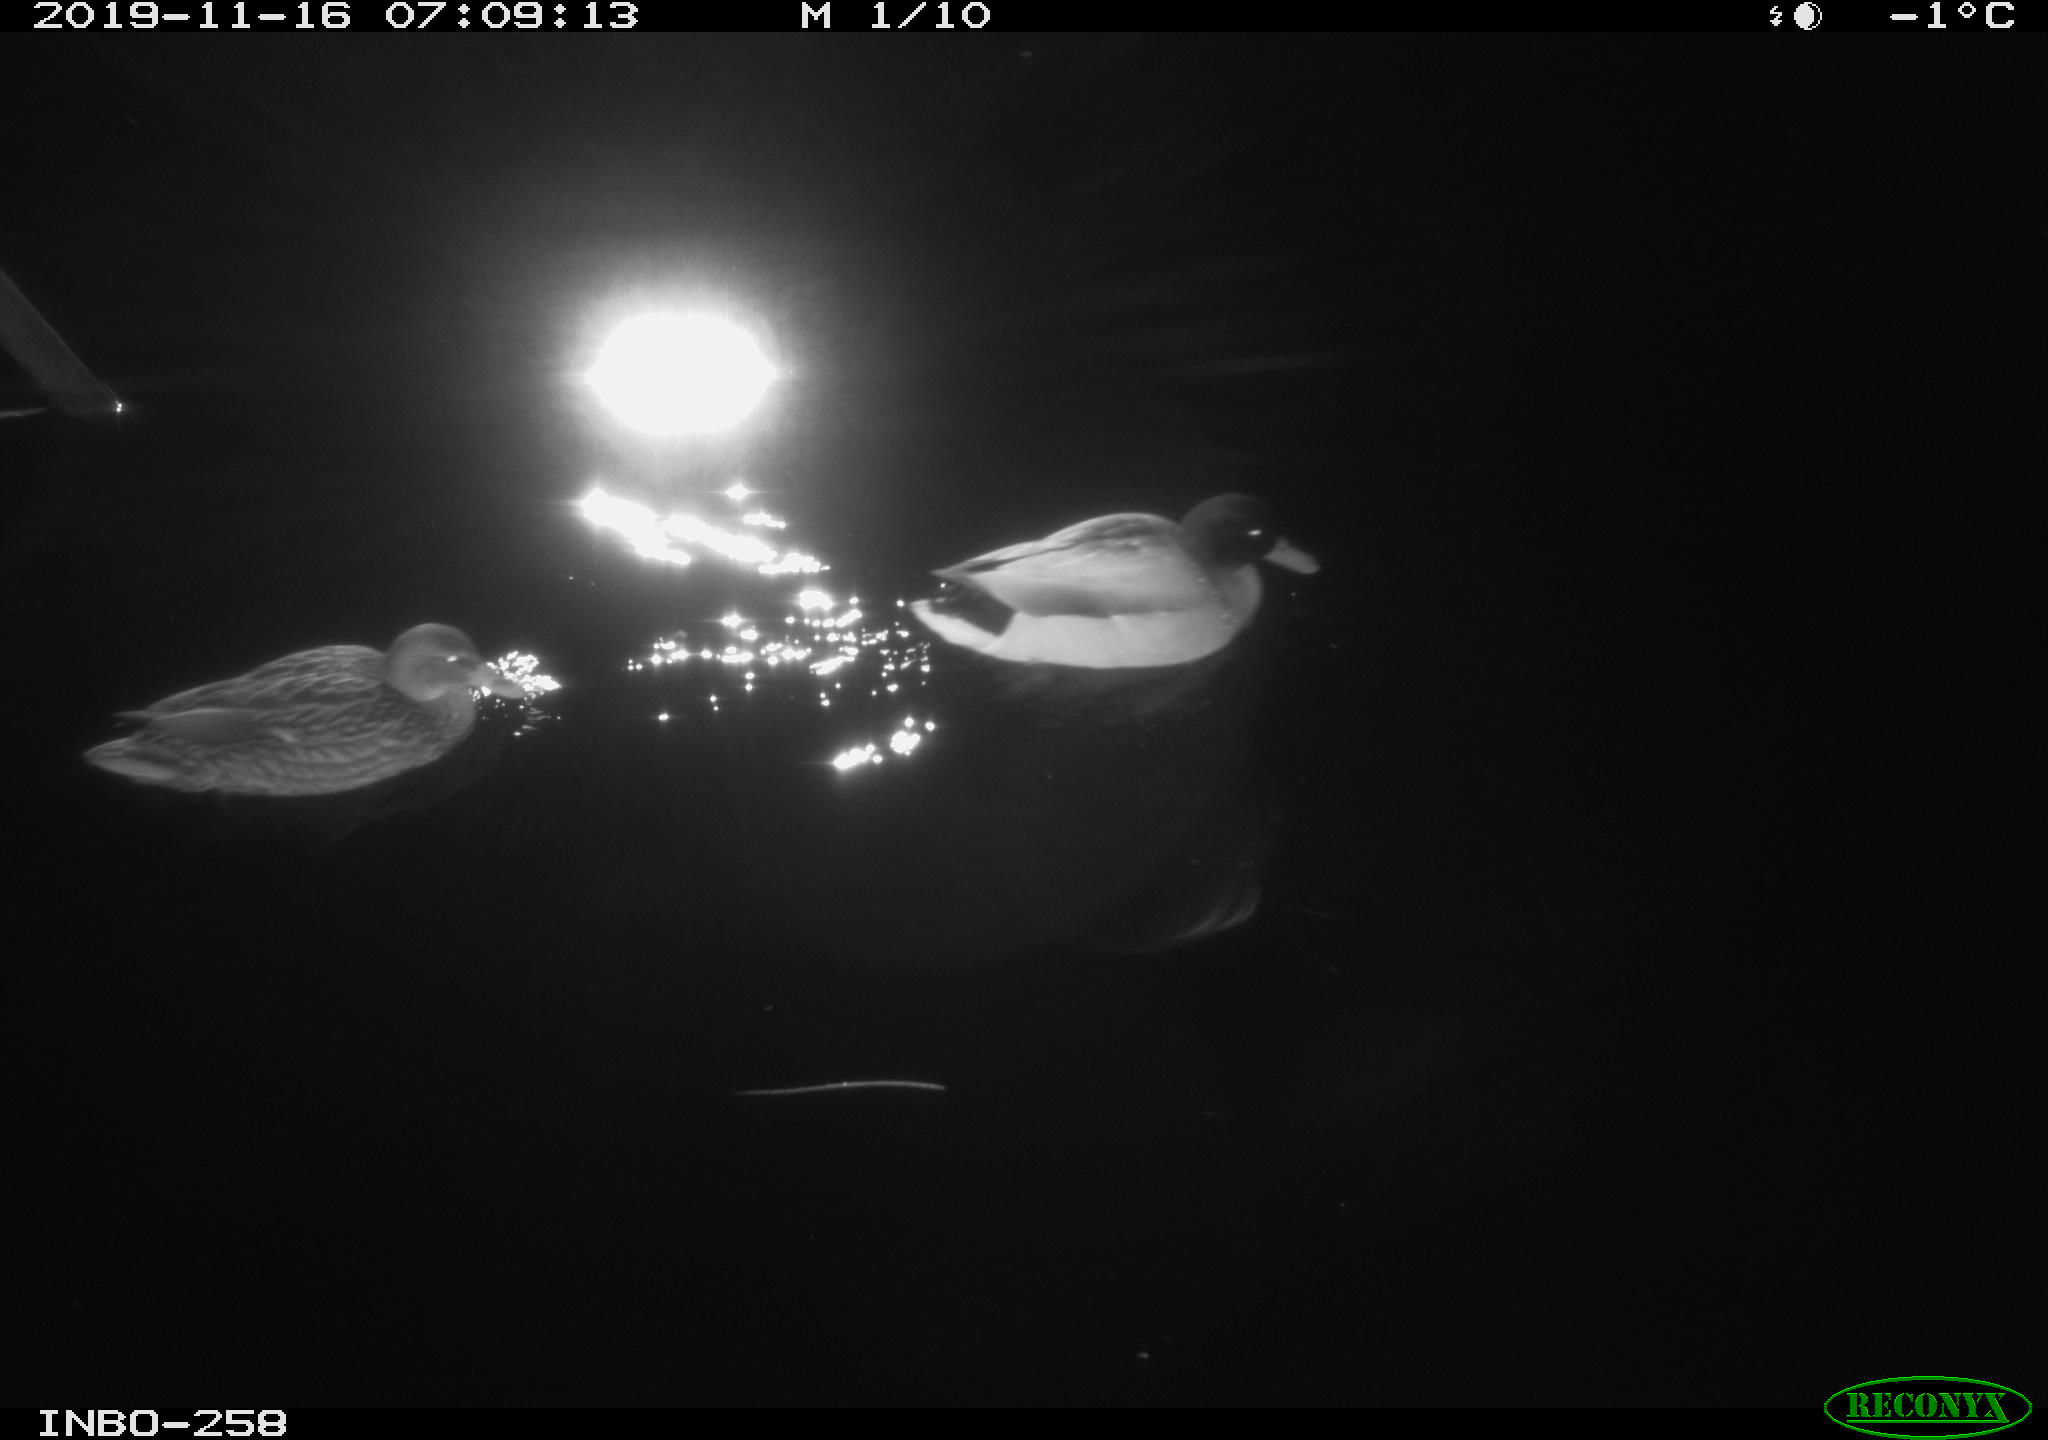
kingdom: Animalia
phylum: Chordata
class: Aves
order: Anseriformes
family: Anatidae
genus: Anas
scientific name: Anas platyrhynchos
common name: Mallard
